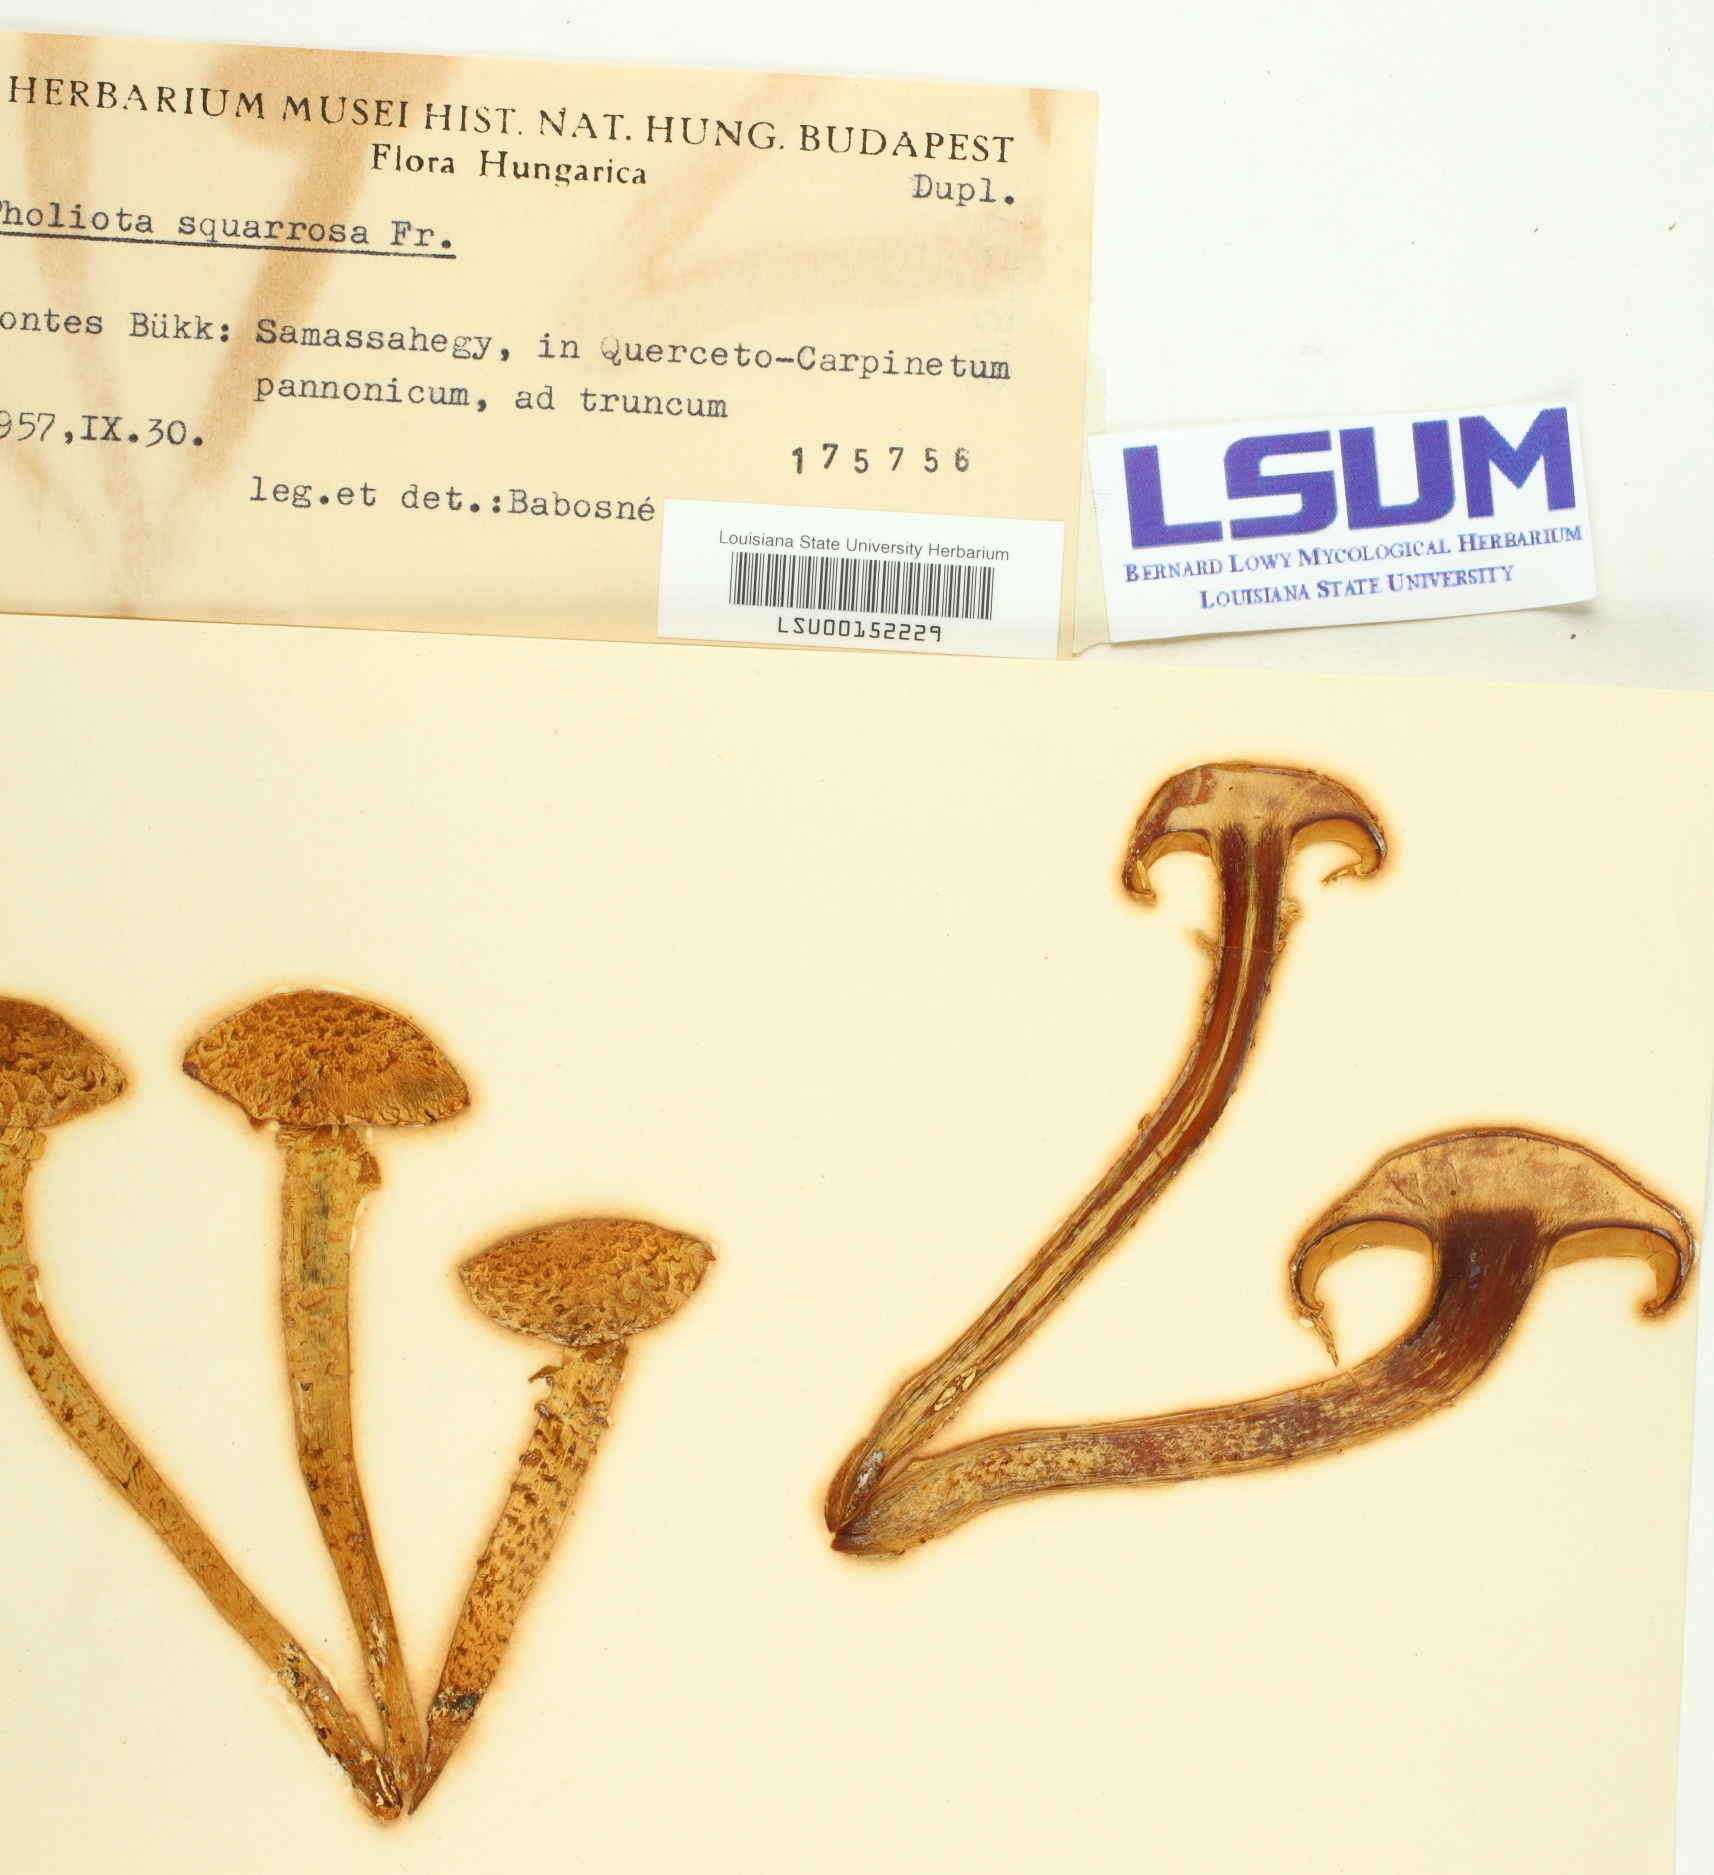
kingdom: Fungi
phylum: Basidiomycota
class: Agaricomycetes
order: Agaricales
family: Strophariaceae
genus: Pholiota
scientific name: Pholiota squarrosa
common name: Shaggy pholiota
